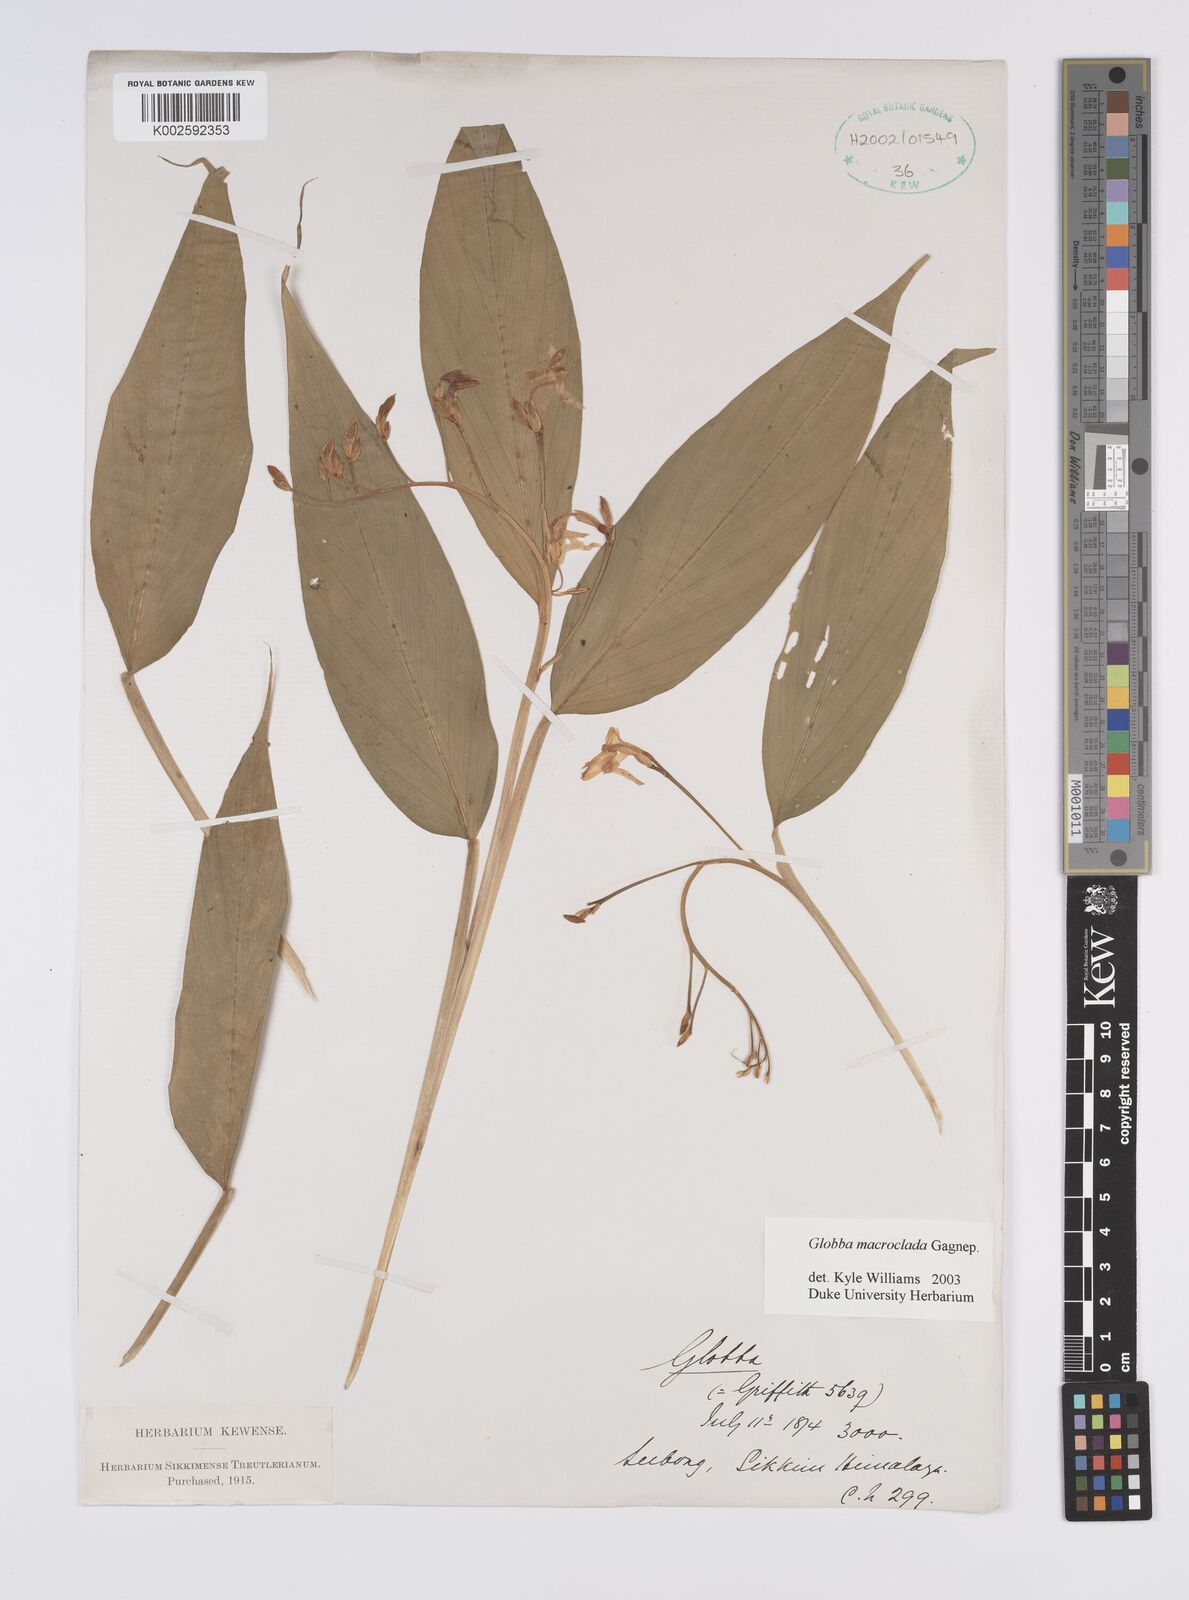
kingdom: Plantae
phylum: Tracheophyta
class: Liliopsida
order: Zingiberales
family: Zingiberaceae
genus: Globba
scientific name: Globba macroclada
